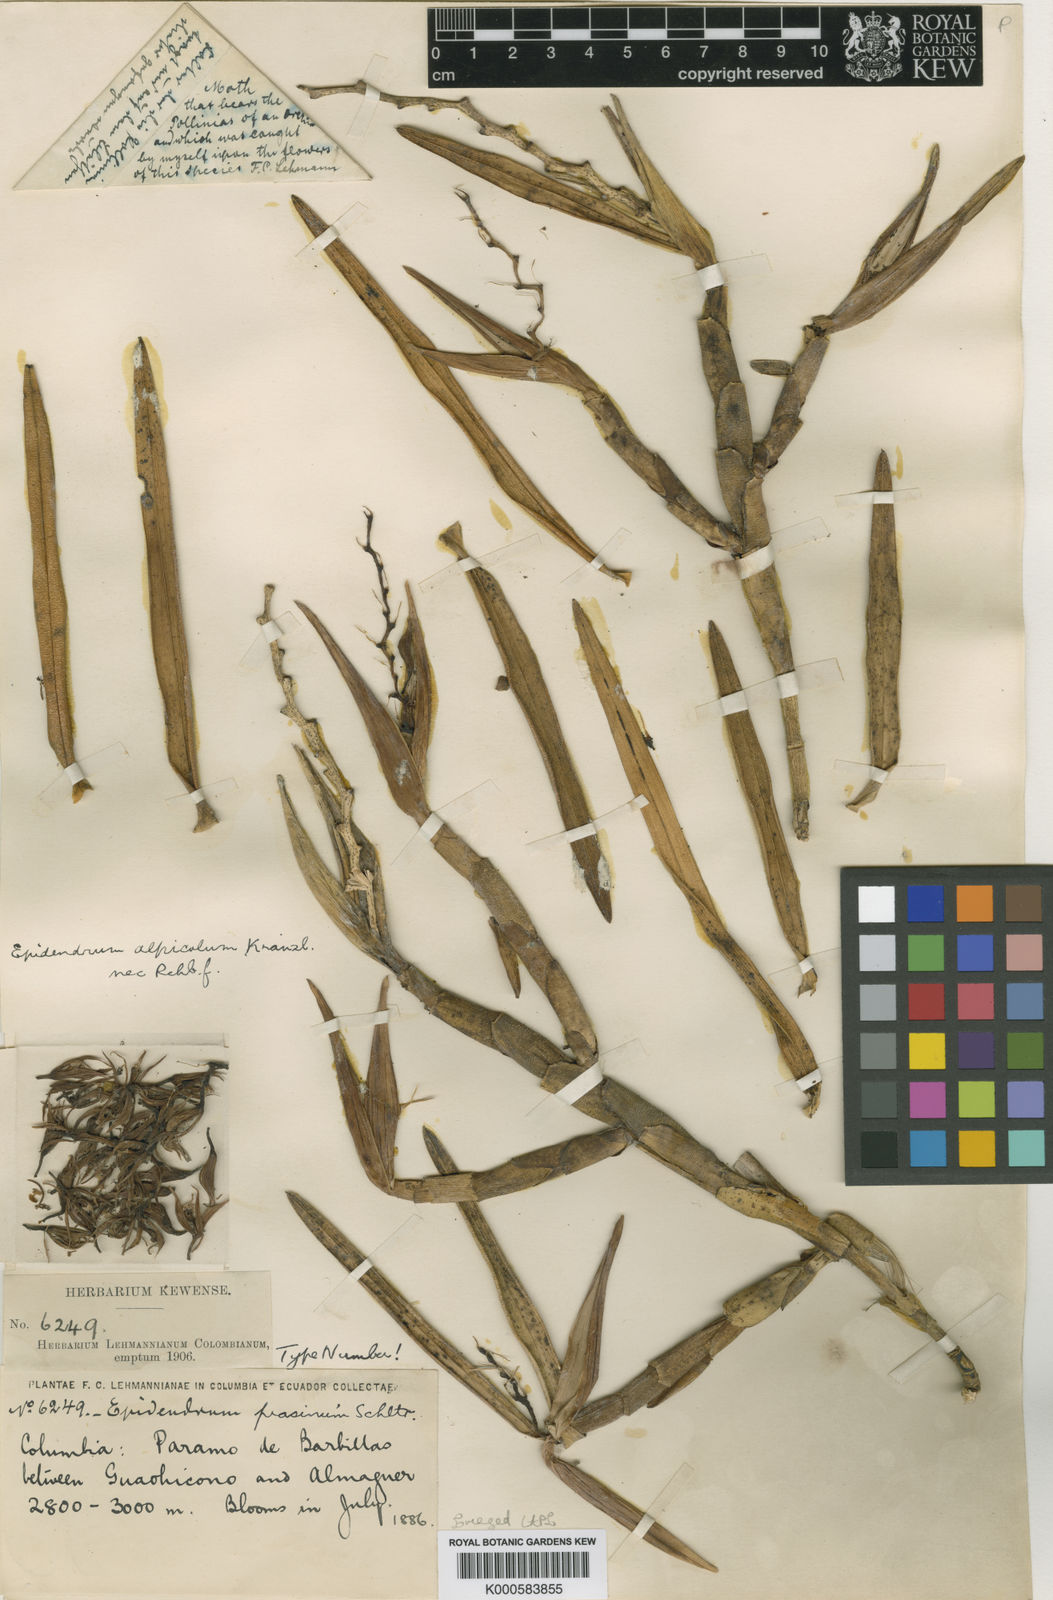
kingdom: Plantae
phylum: Tracheophyta
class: Liliopsida
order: Asparagales
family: Orchidaceae
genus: Epidendrum
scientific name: Epidendrum prasinum
